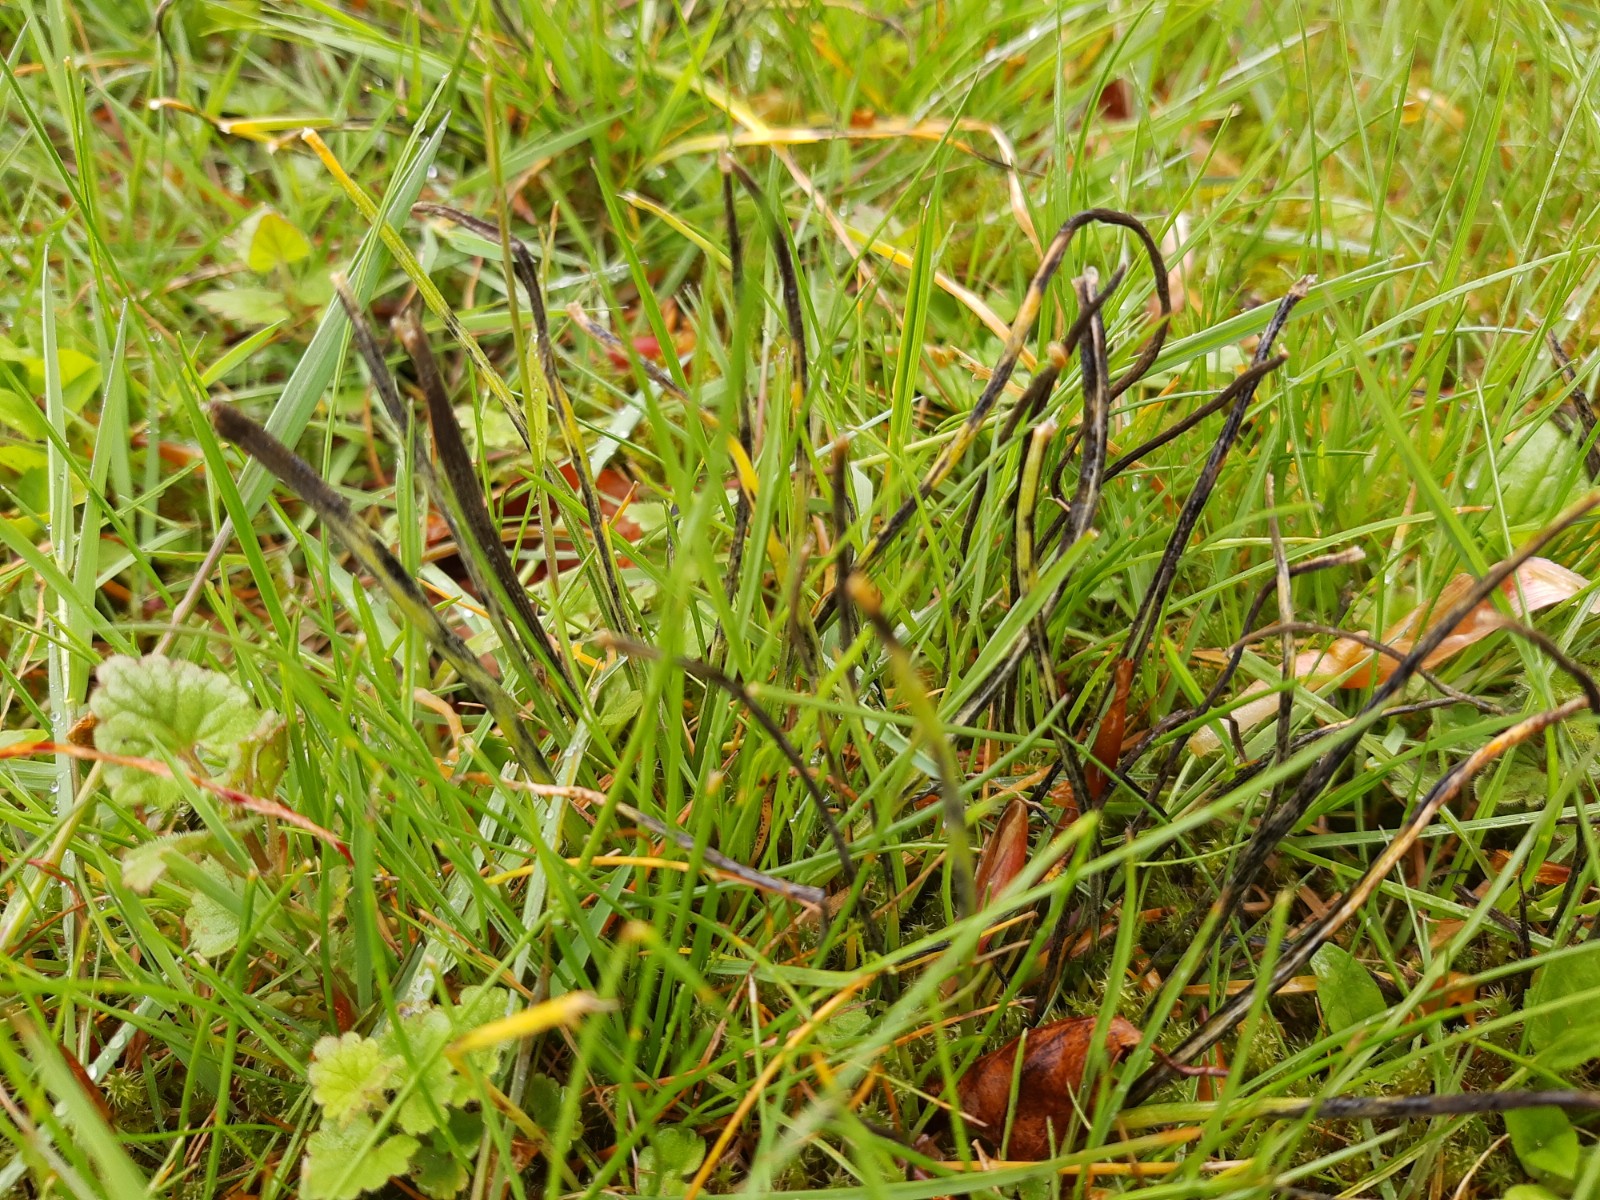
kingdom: Fungi
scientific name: Fungi
